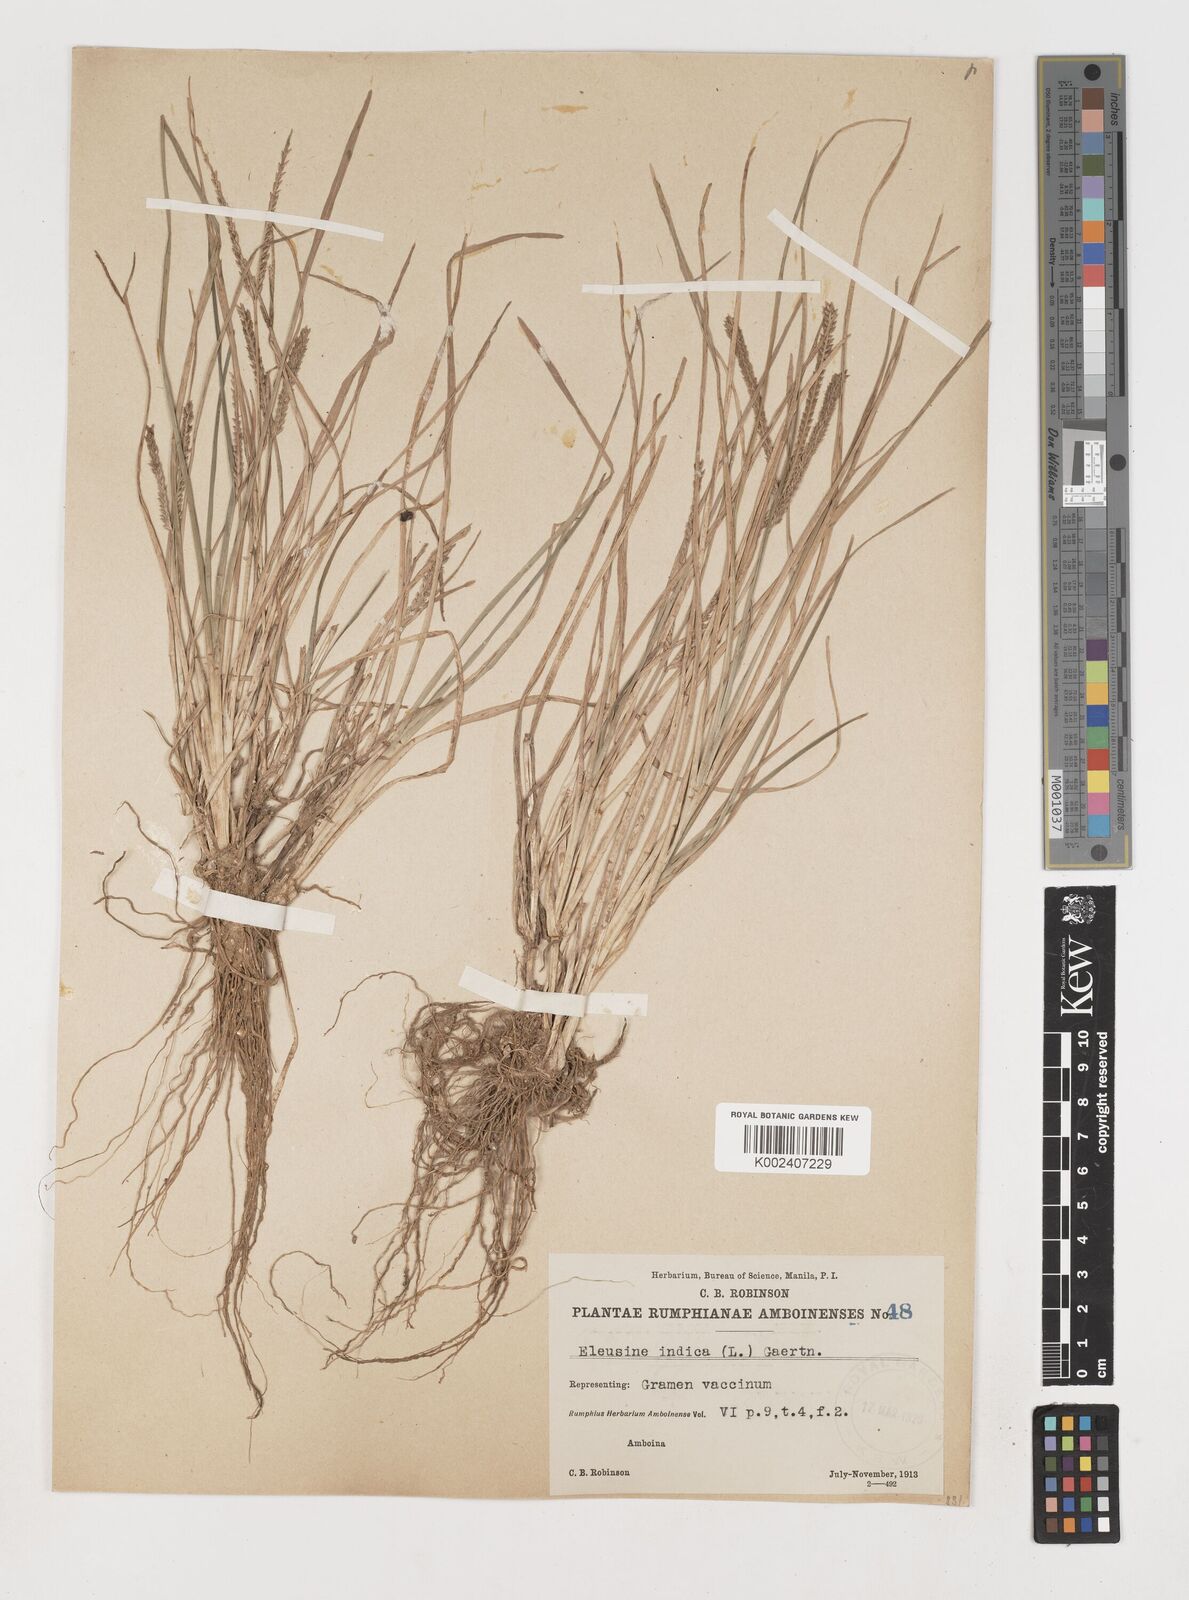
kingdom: Plantae
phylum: Tracheophyta
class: Liliopsida
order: Poales
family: Poaceae
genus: Eleusine
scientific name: Eleusine indica
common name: Yard-grass
